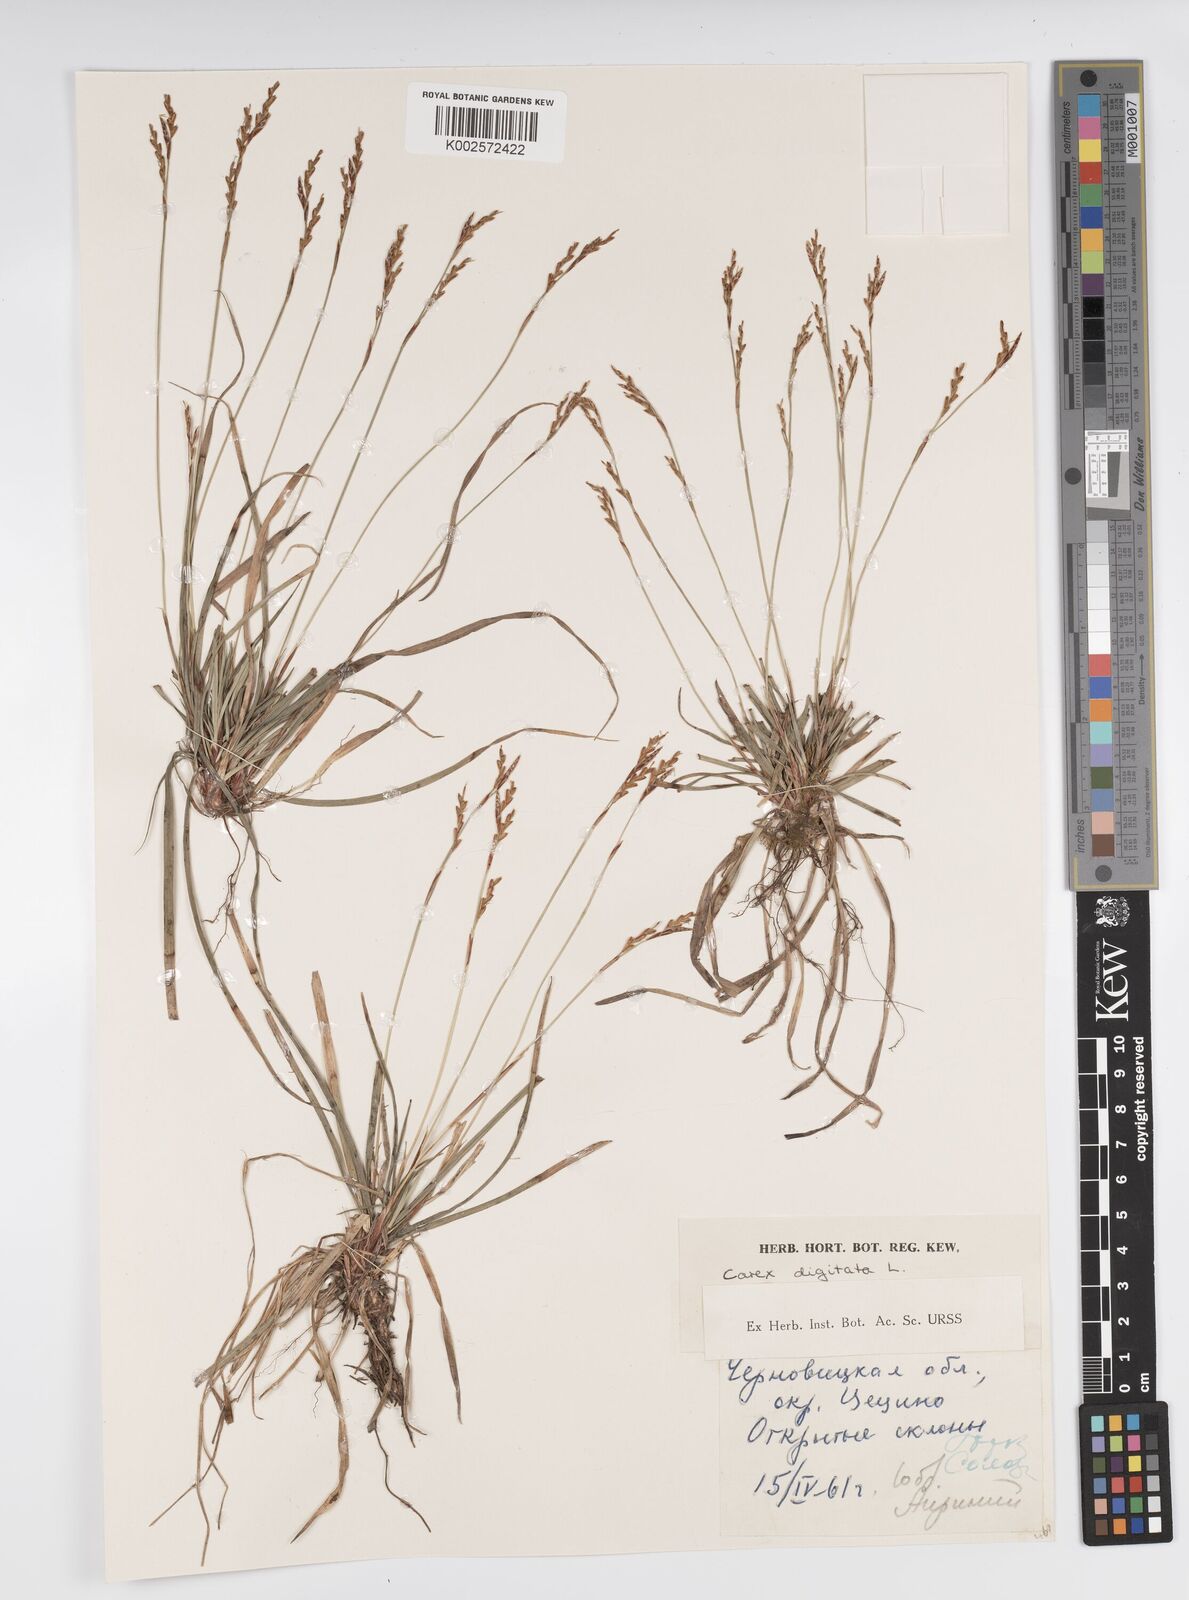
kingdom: Plantae
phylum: Tracheophyta
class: Liliopsida
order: Poales
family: Cyperaceae
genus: Carex
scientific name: Carex digitata
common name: Fingered sedge
